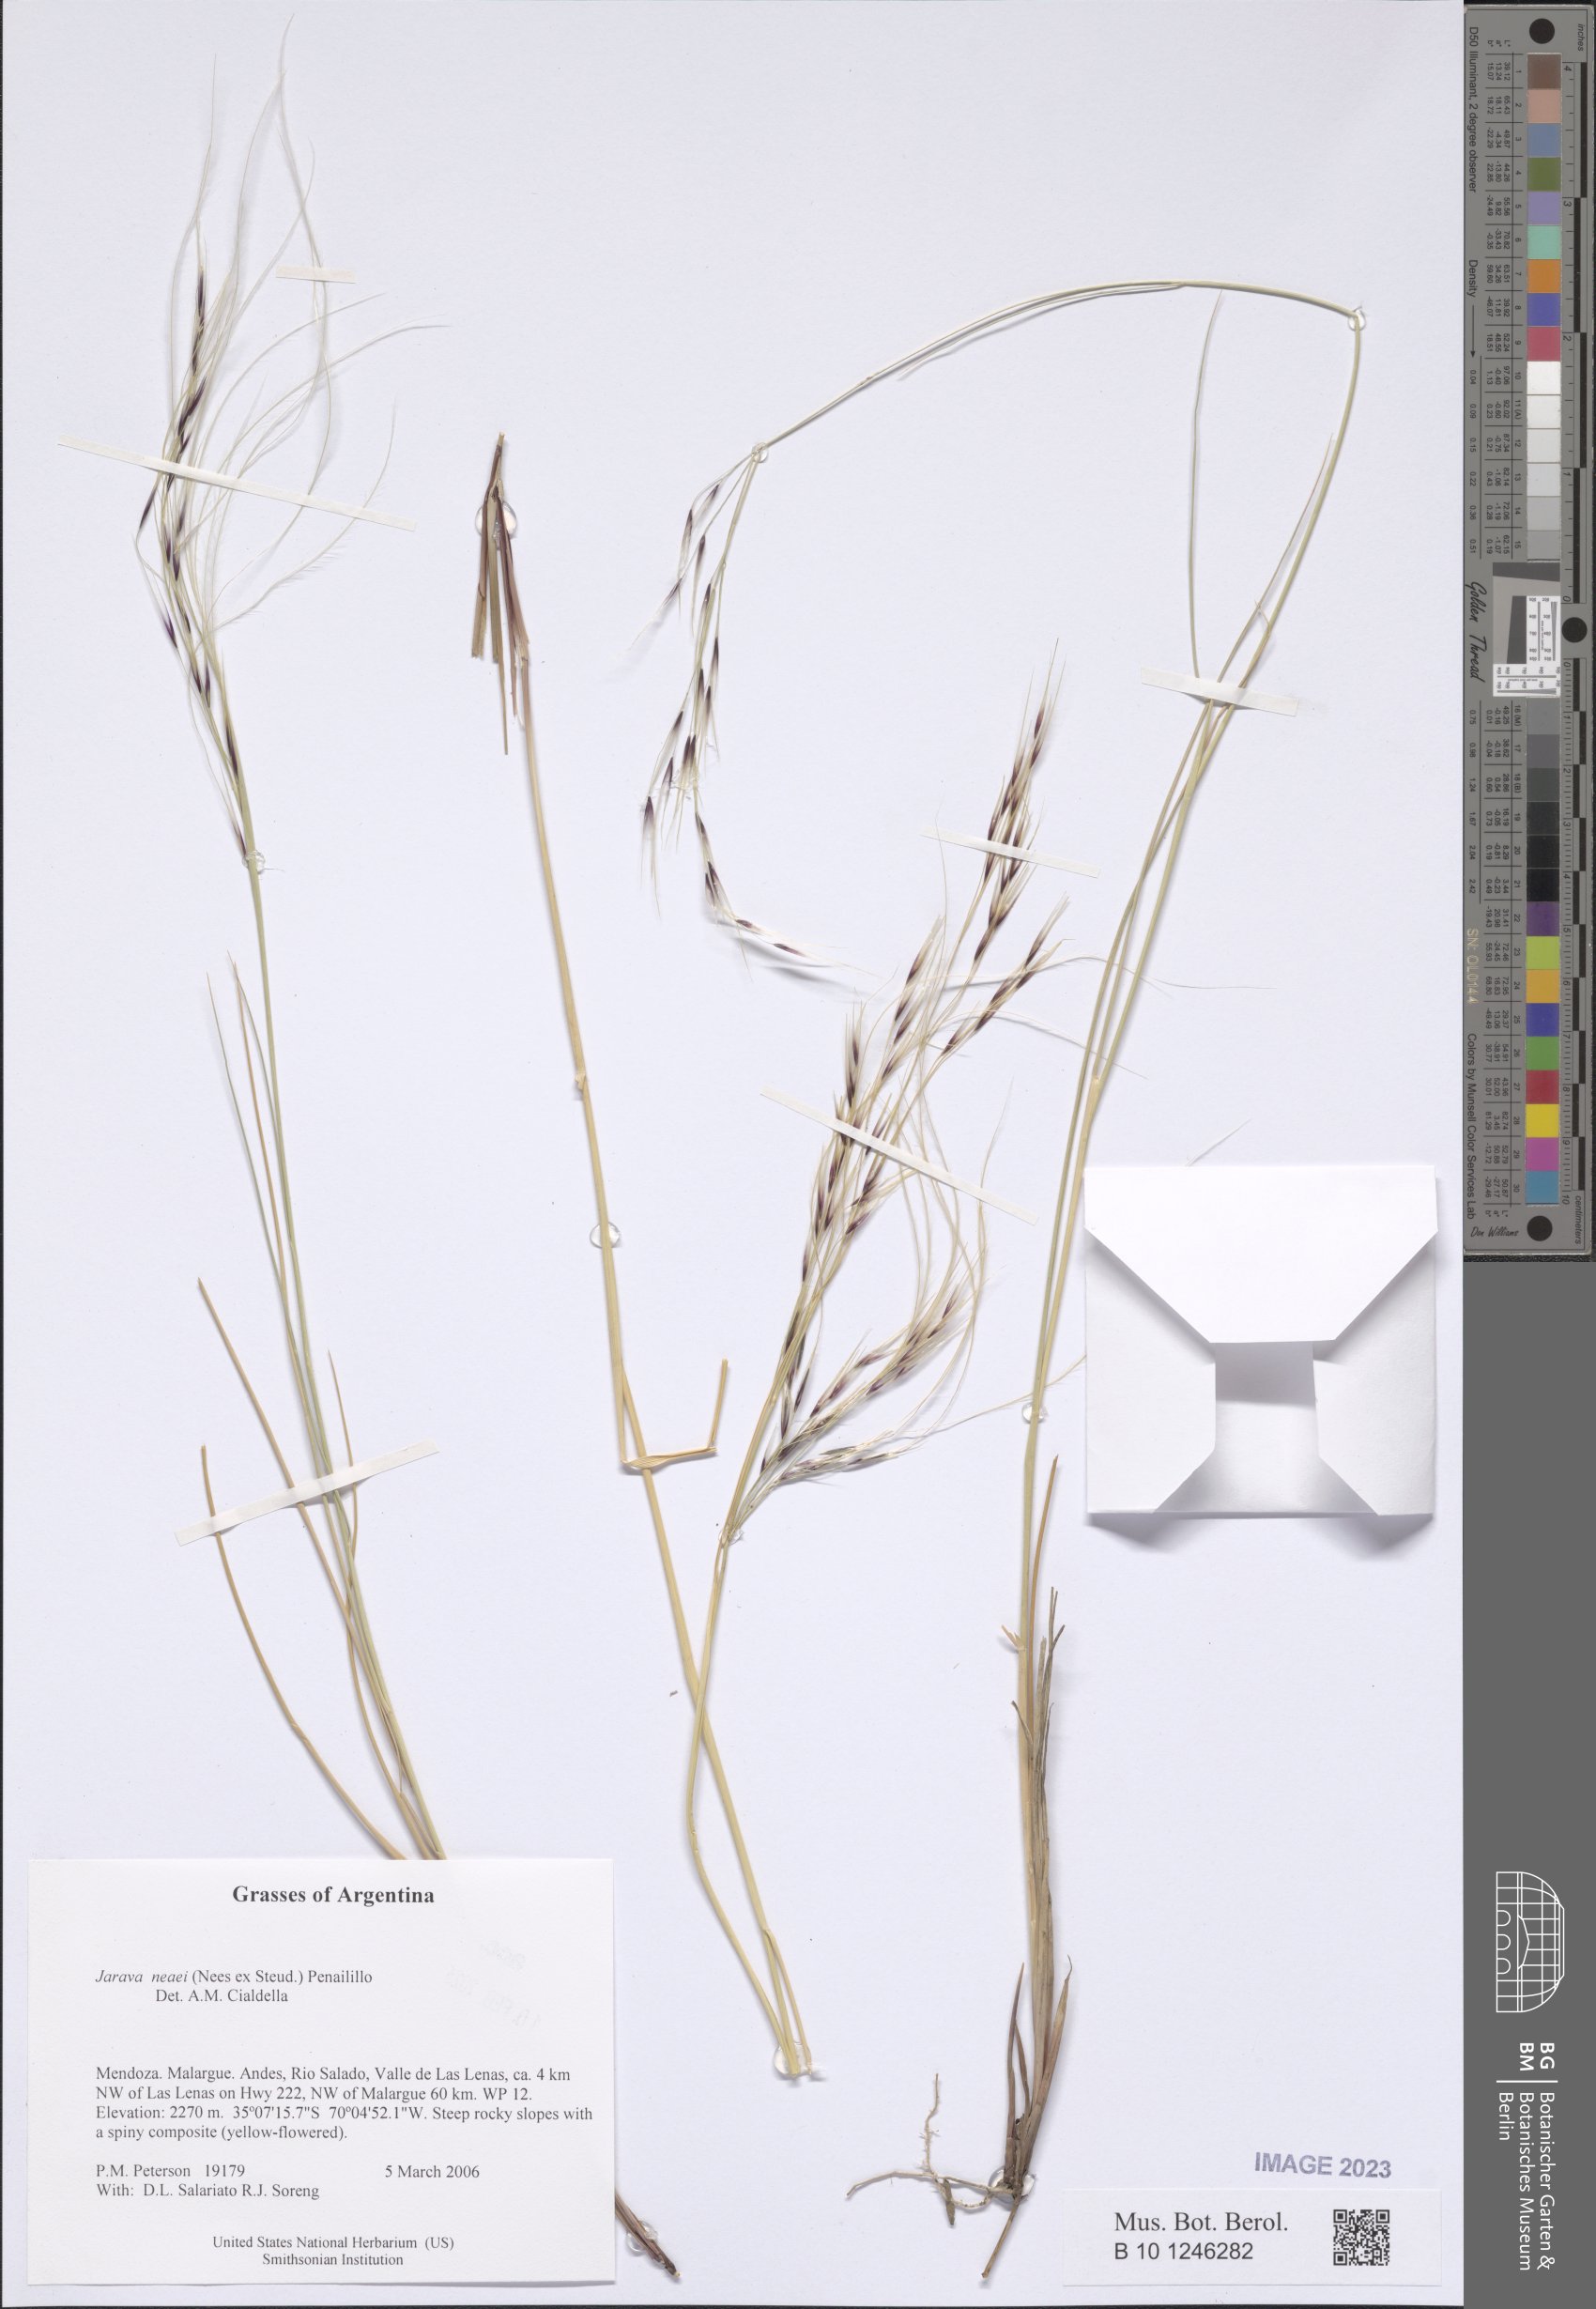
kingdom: Plantae
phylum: Tracheophyta
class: Liliopsida
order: Poales
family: Poaceae
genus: Stipa
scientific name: Stipa neaei
